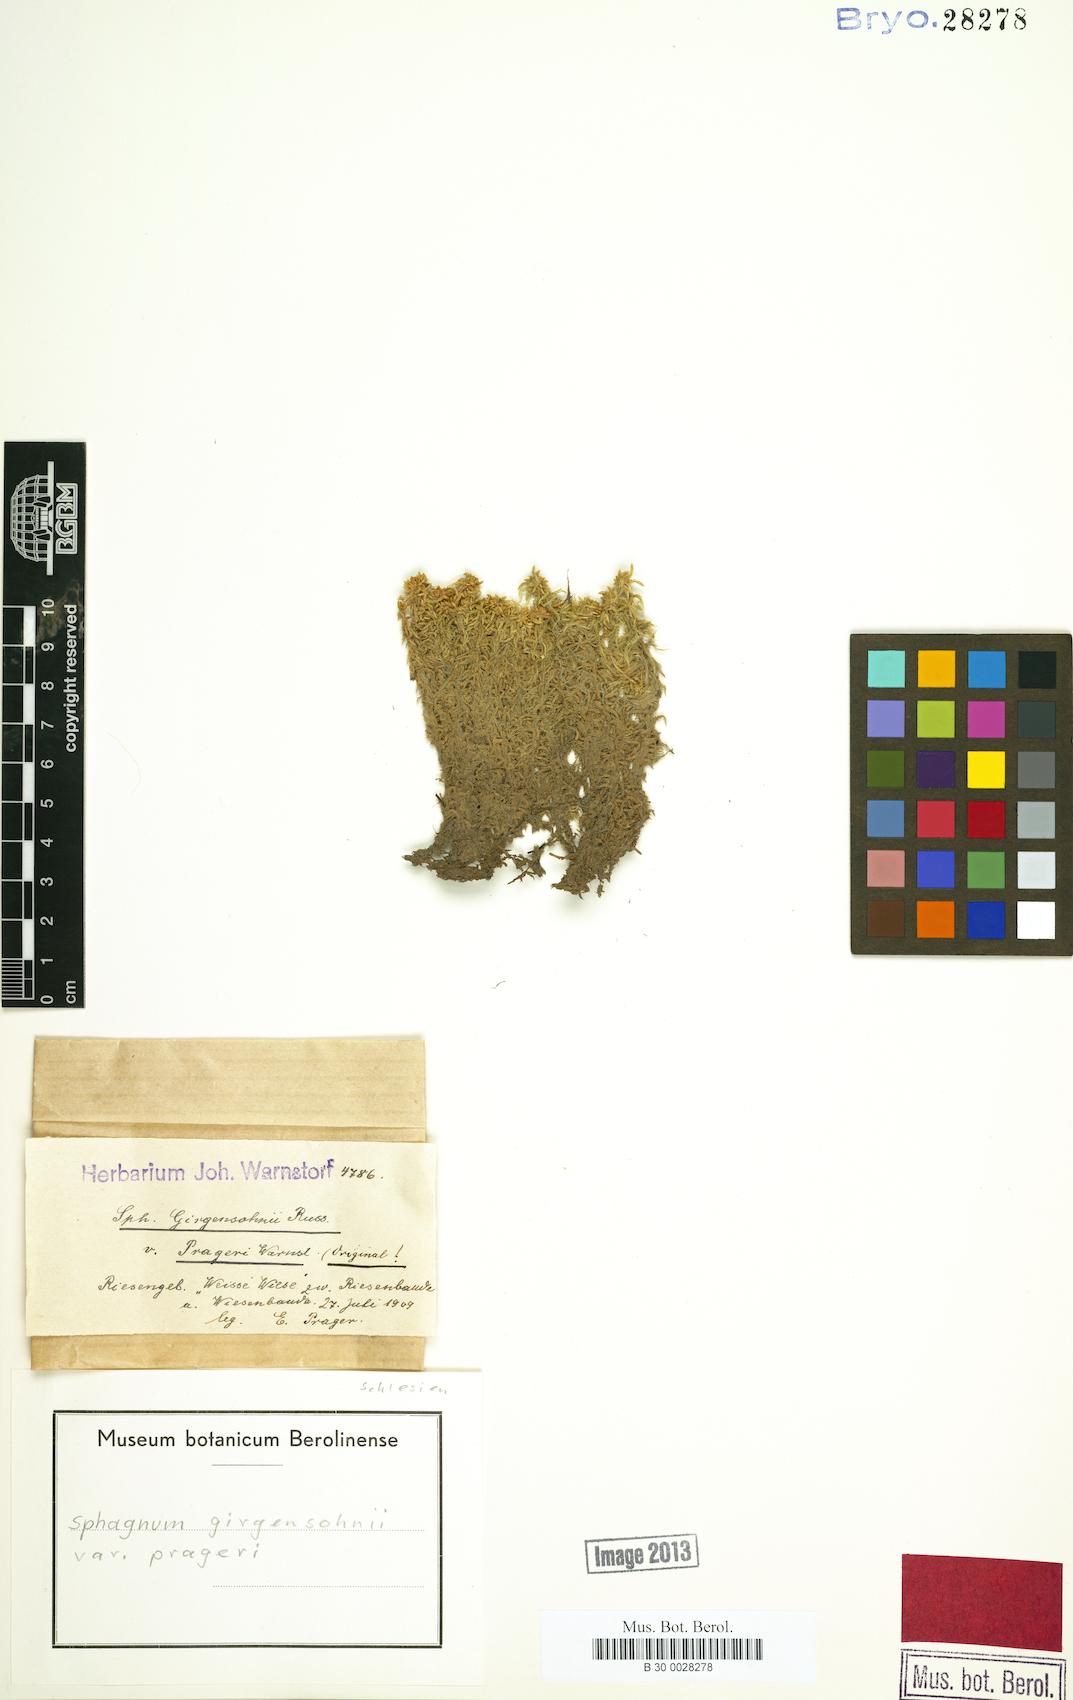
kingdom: Plantae
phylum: Bryophyta
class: Sphagnopsida
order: Sphagnales
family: Sphagnaceae
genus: Sphagnum
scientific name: Sphagnum girgensohnii
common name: Girgensohn's peat moss
